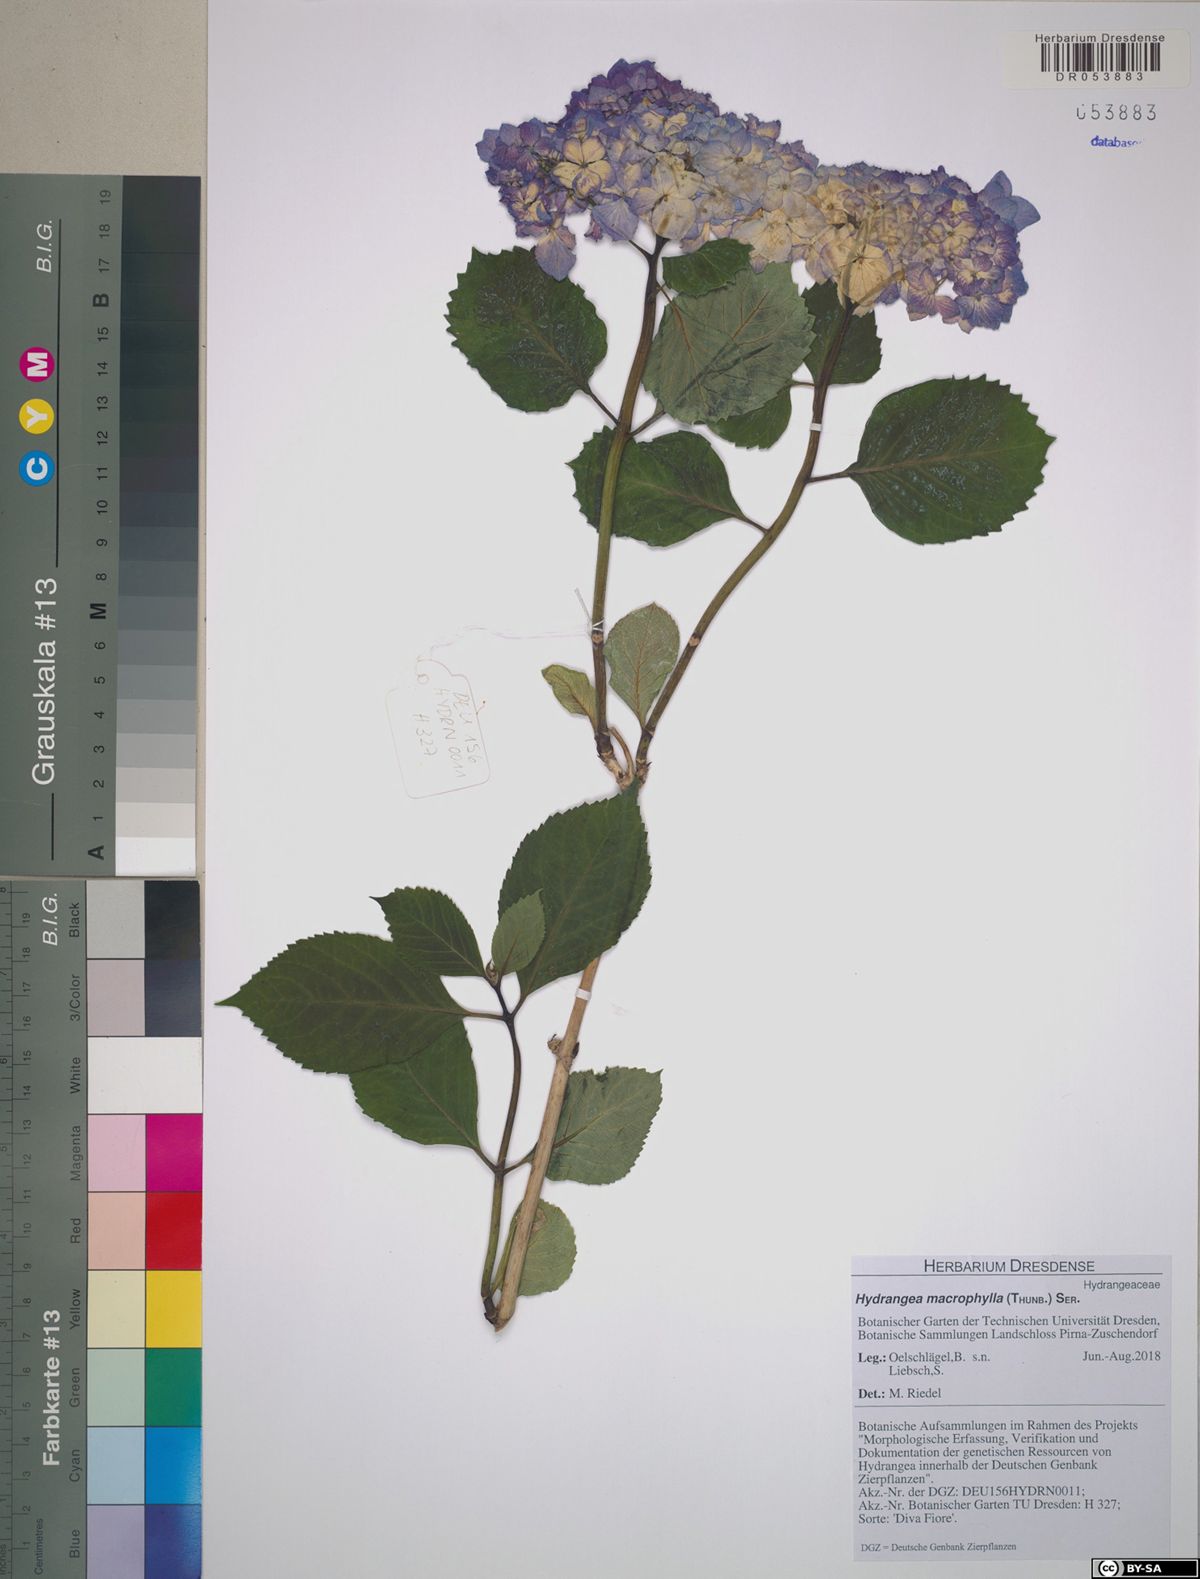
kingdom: Plantae
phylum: Tracheophyta
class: Magnoliopsida
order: Cornales
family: Hydrangeaceae
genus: Hydrangea
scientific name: Hydrangea macrophylla
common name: Hydrangea
